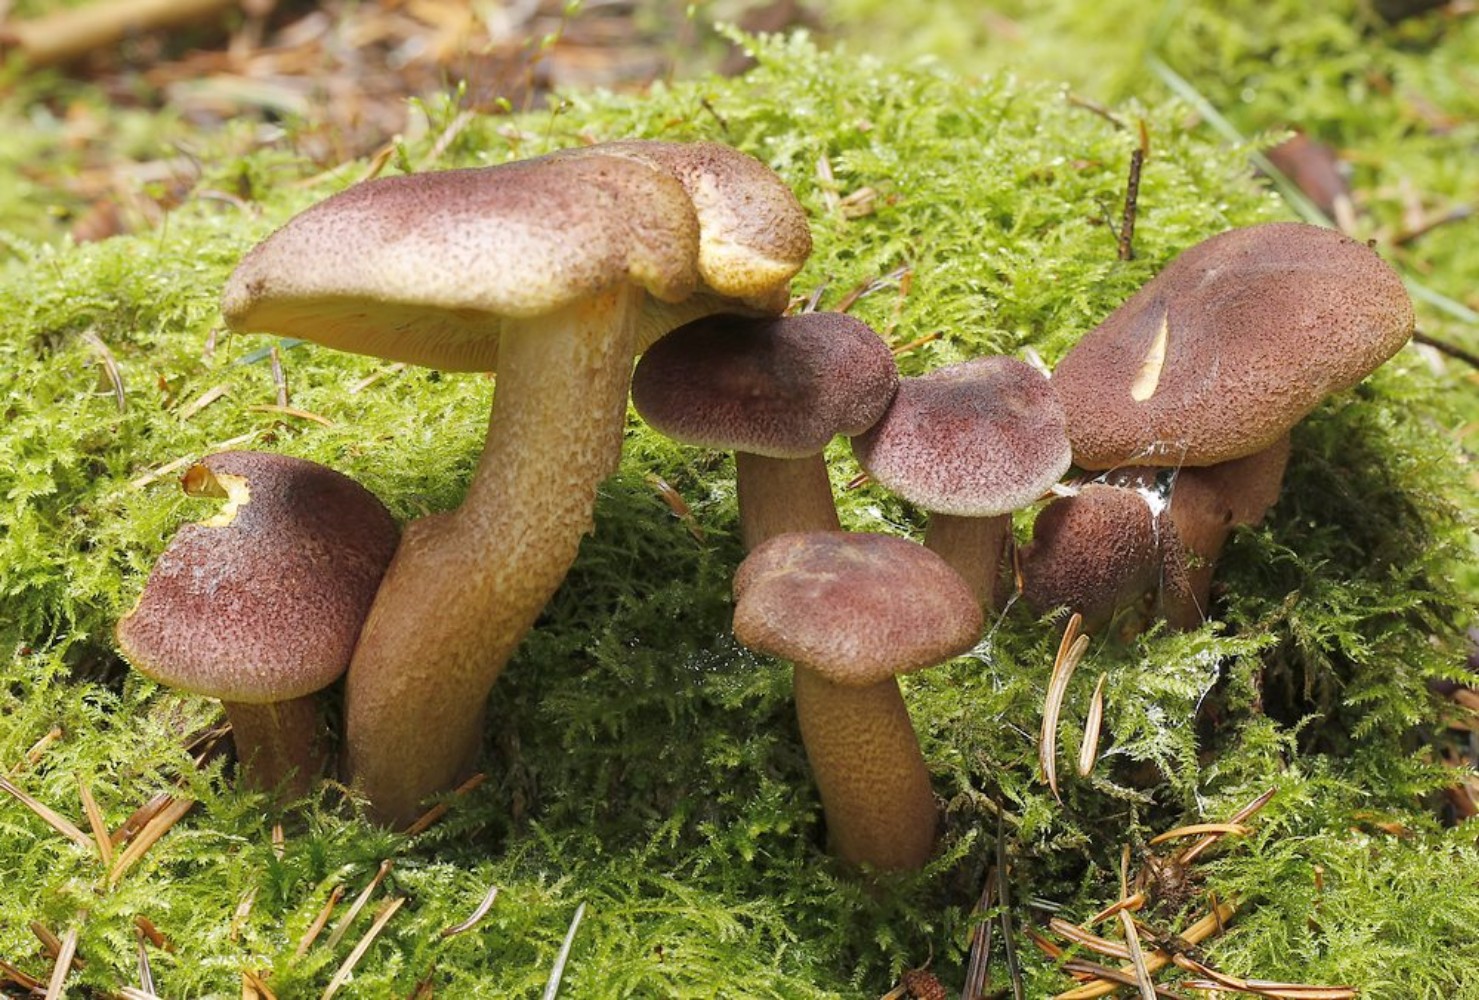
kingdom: Fungi
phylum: Basidiomycota
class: Agaricomycetes
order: Agaricales
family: Tricholomataceae
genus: Tricholomopsis
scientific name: Tricholomopsis rutilans
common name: purpur-væbnerhat
